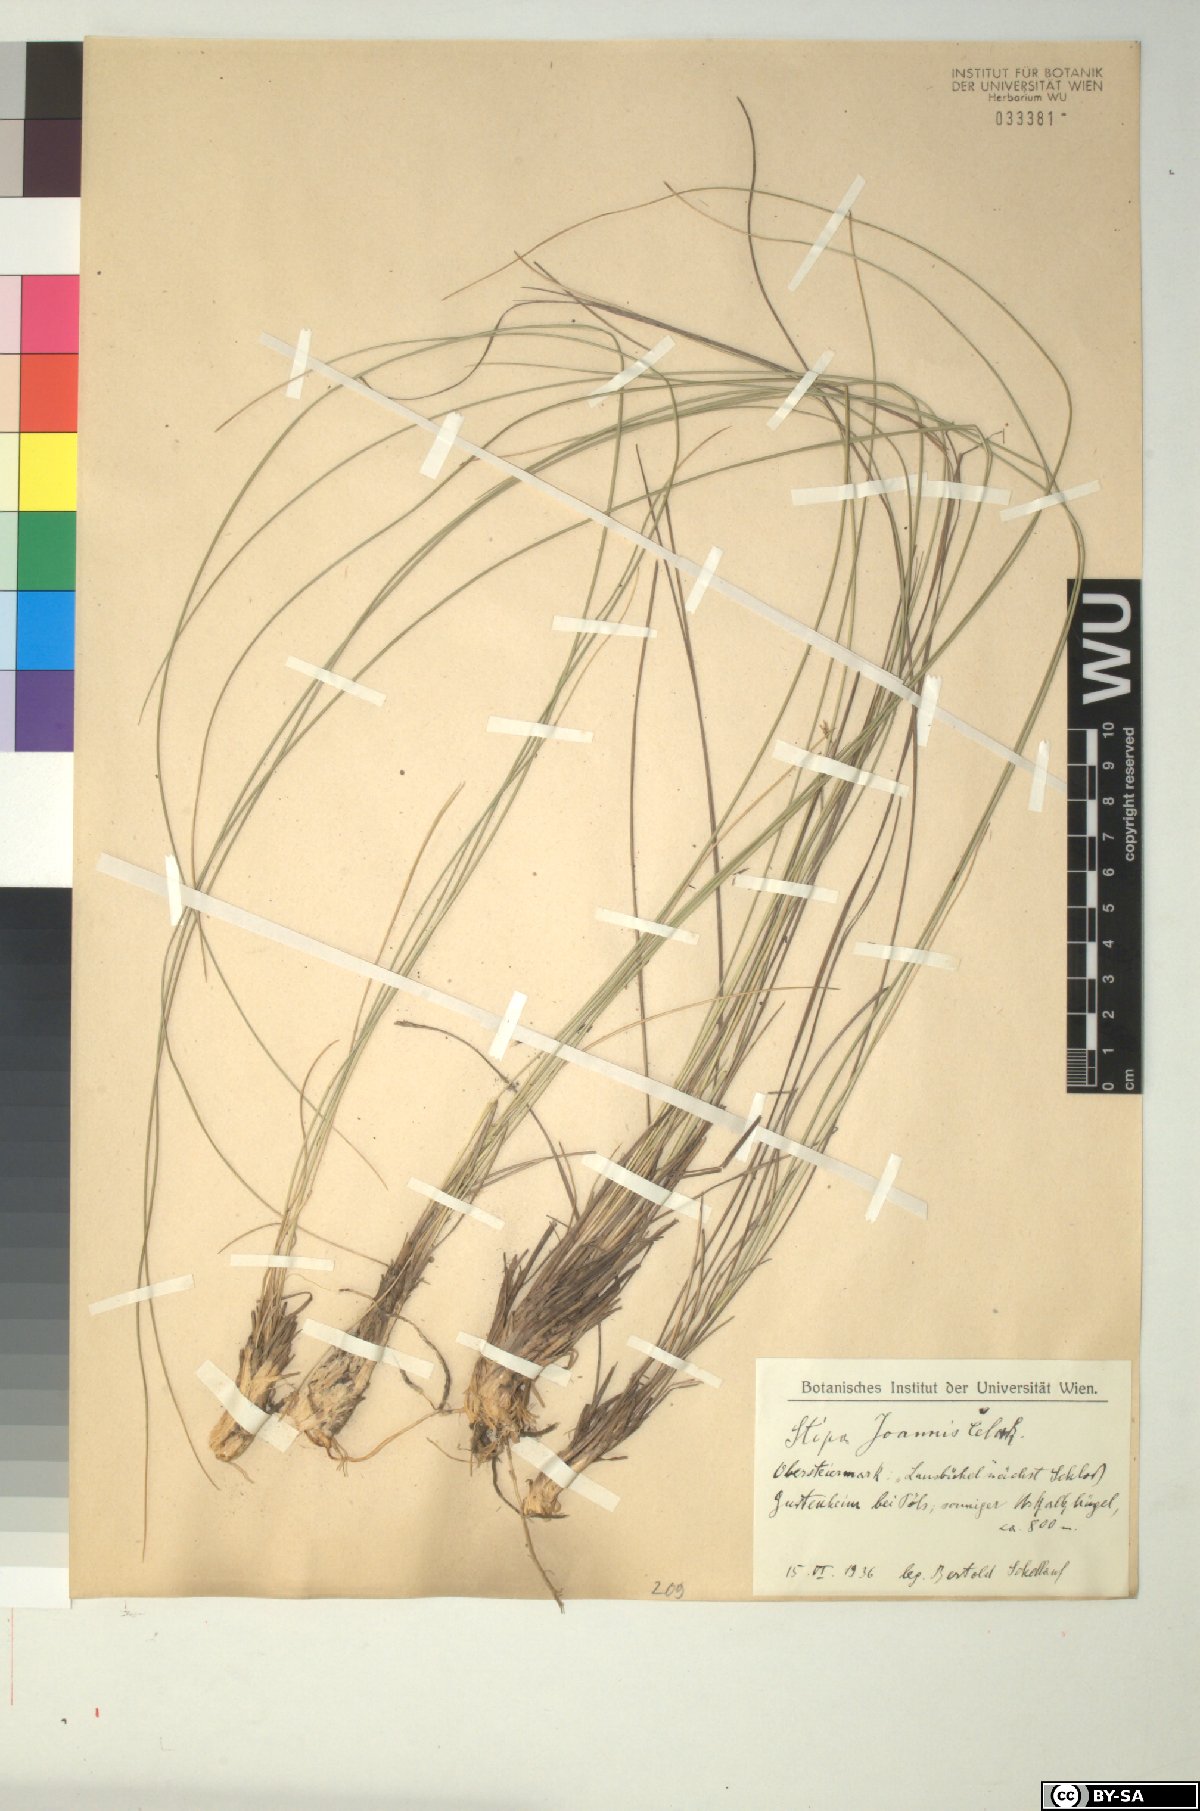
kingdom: Plantae
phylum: Tracheophyta
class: Liliopsida
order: Poales
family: Poaceae
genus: Stipa
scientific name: Stipa pennata
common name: European feather grass
